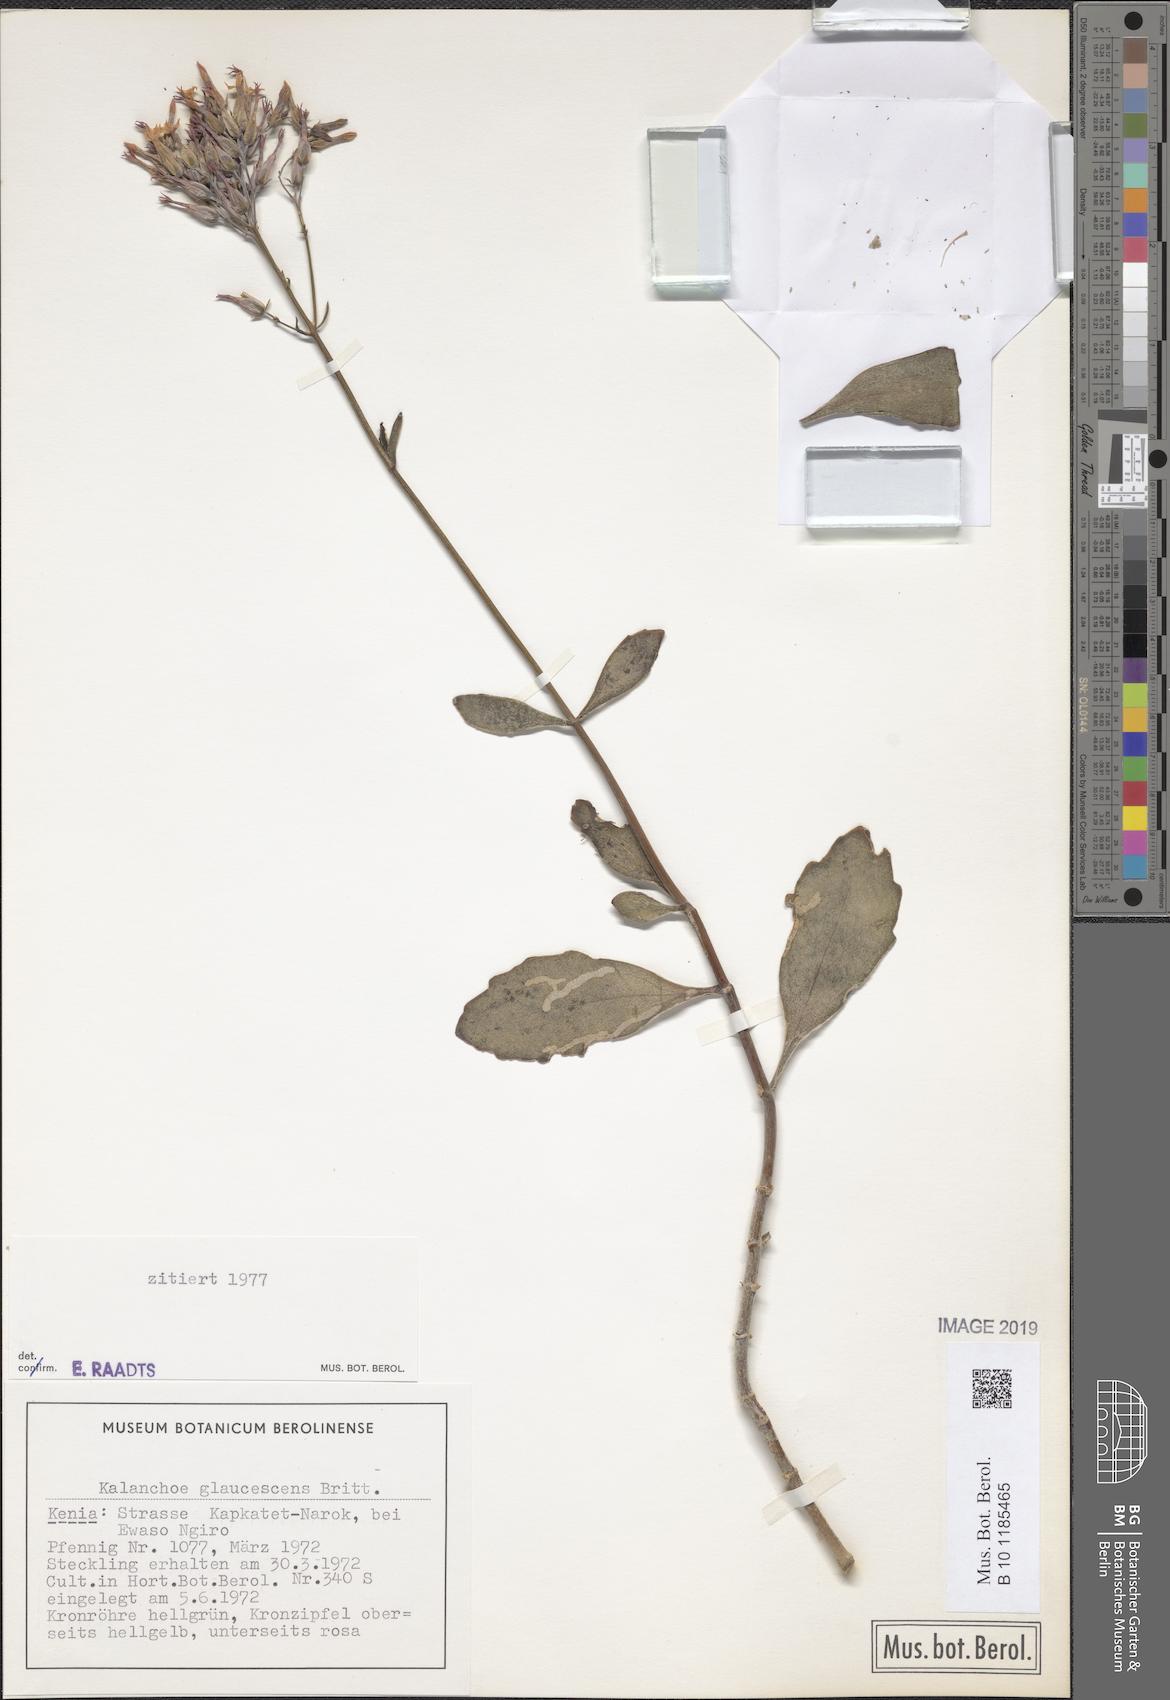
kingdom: Plantae
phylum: Tracheophyta
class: Magnoliopsida
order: Saxifragales
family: Crassulaceae
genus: Kalanchoe
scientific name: Kalanchoe glaucescens
